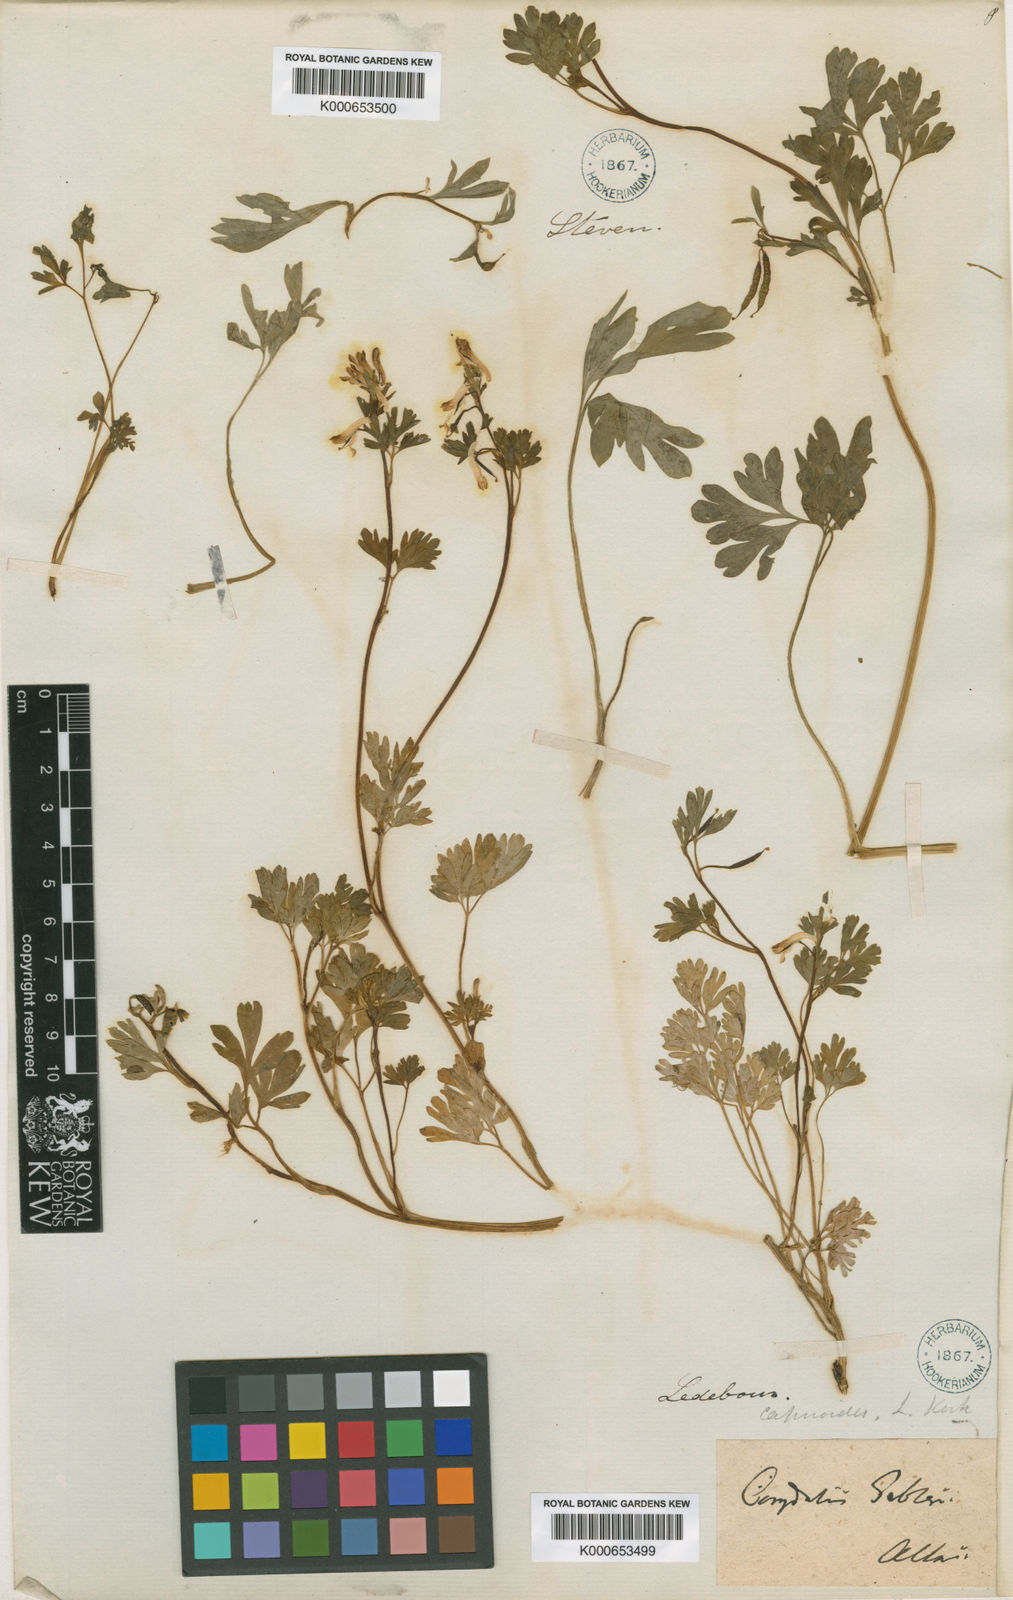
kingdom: Plantae
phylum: Tracheophyta
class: Magnoliopsida
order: Ranunculales
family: Papaveraceae
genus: Corydalis
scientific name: Corydalis capnoides
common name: Beaked corydalis
